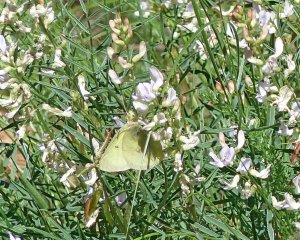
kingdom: Animalia
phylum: Arthropoda
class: Insecta
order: Lepidoptera
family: Pieridae
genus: Colias
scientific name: Colias eurytheme
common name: Orange Sulphur
